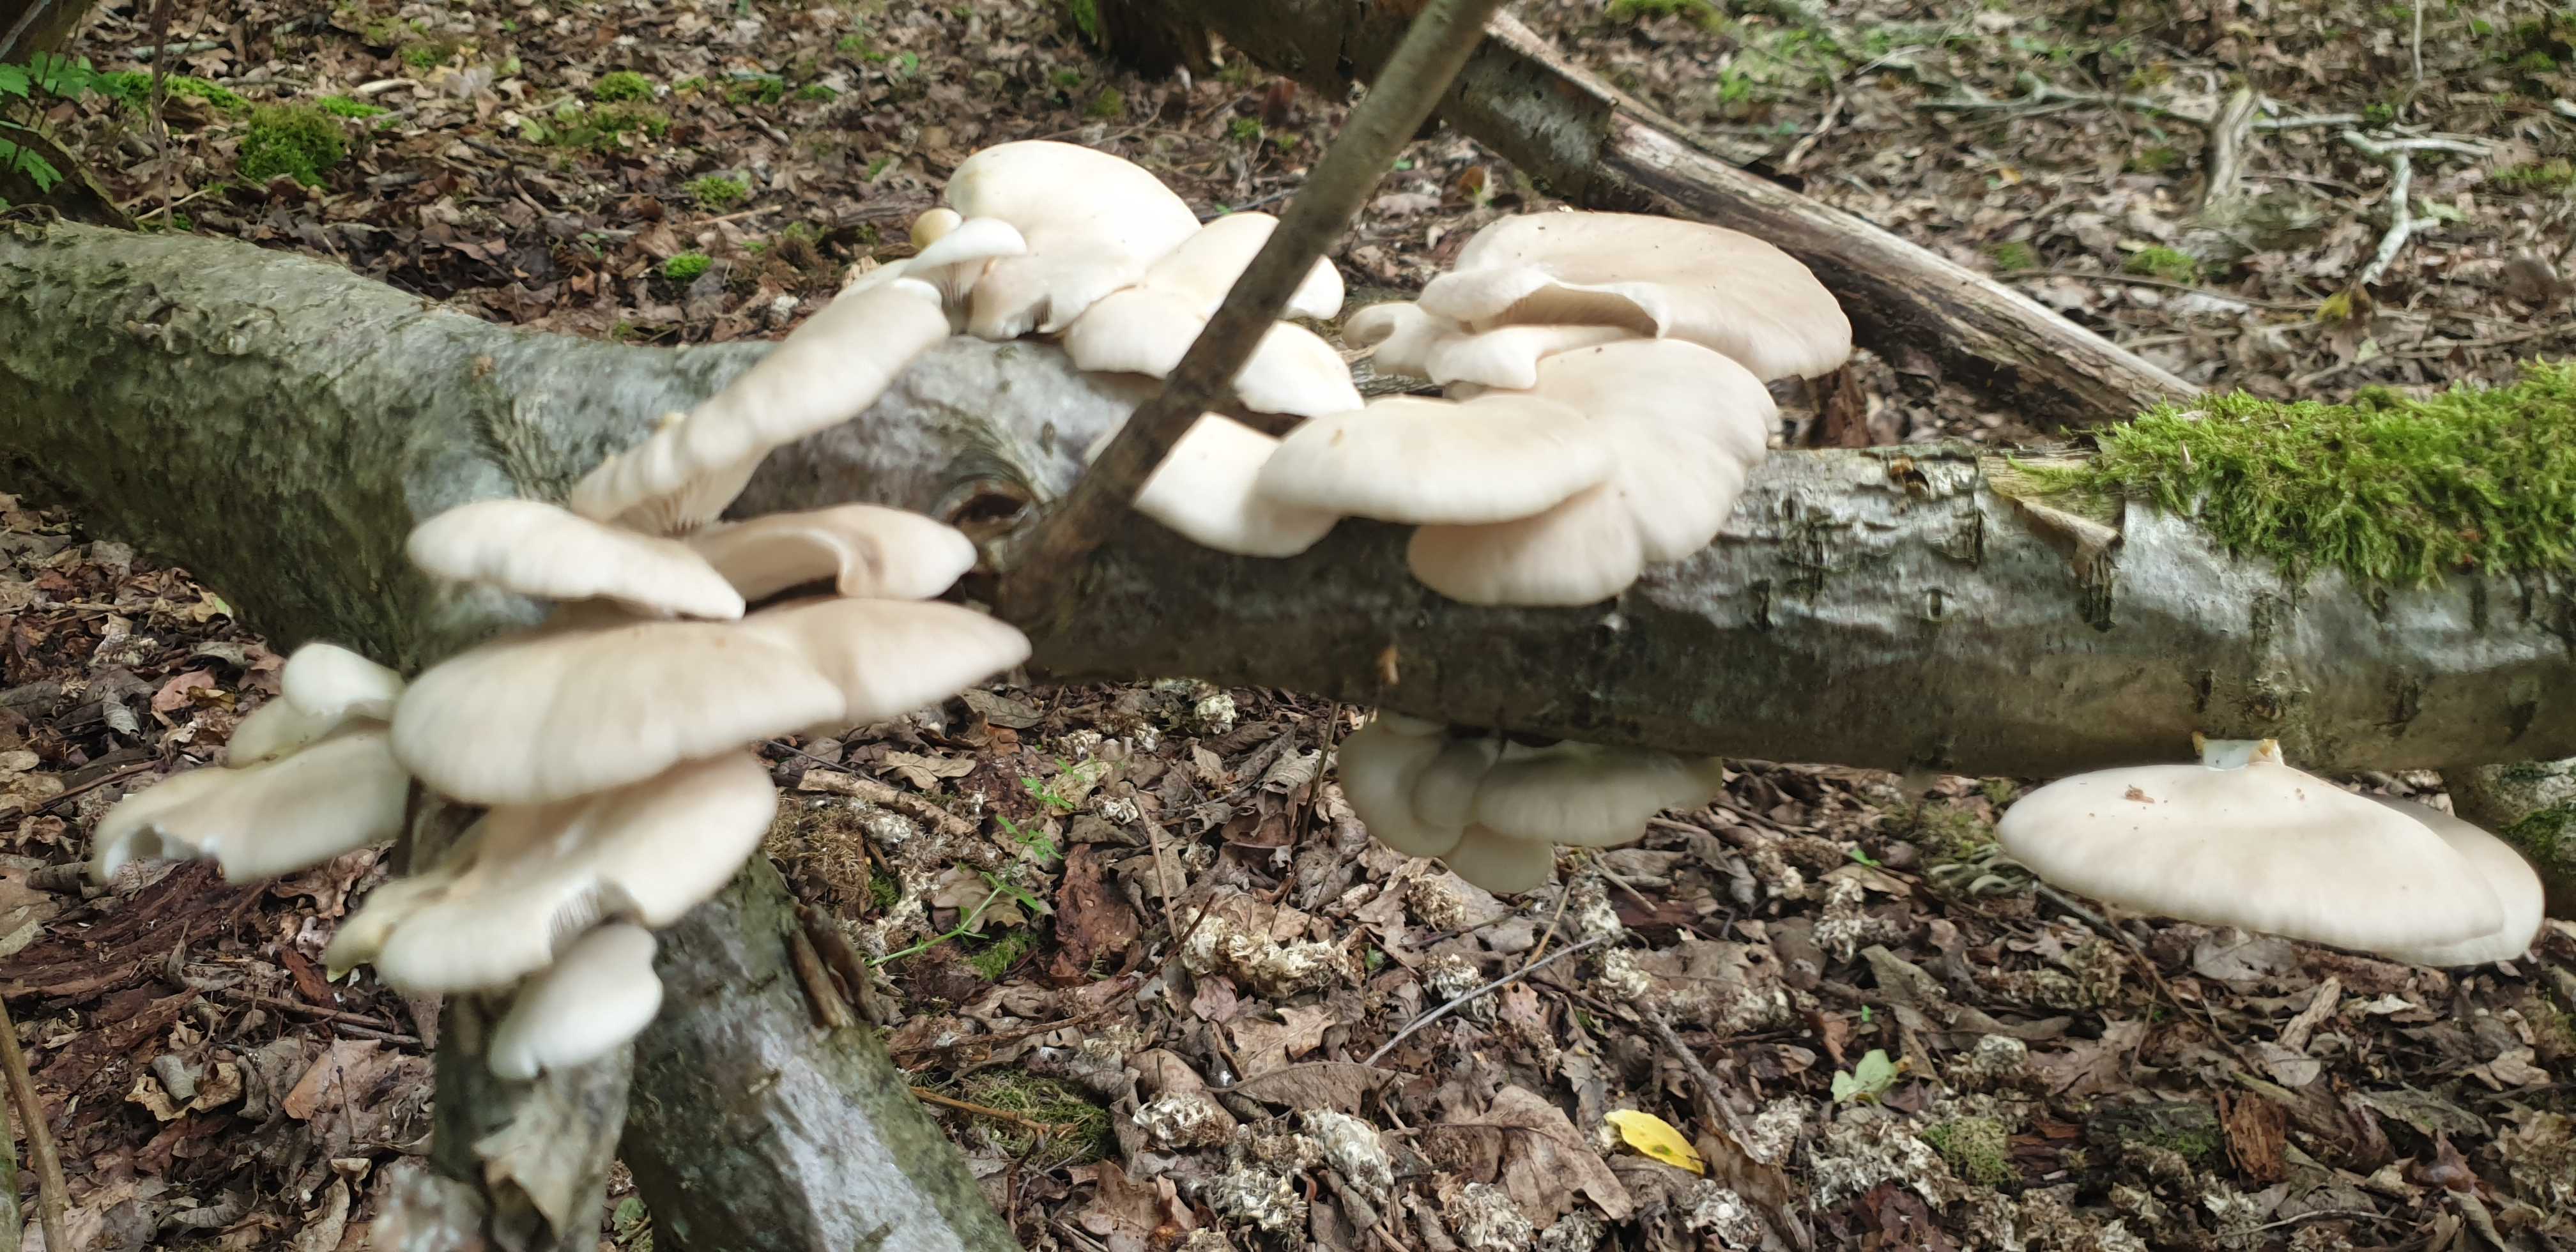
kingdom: Fungi
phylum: Basidiomycota
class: Agaricomycetes
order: Agaricales
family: Pleurotaceae
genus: Pleurotus
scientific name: Pleurotus pulmonarius
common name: sommer-østershat
